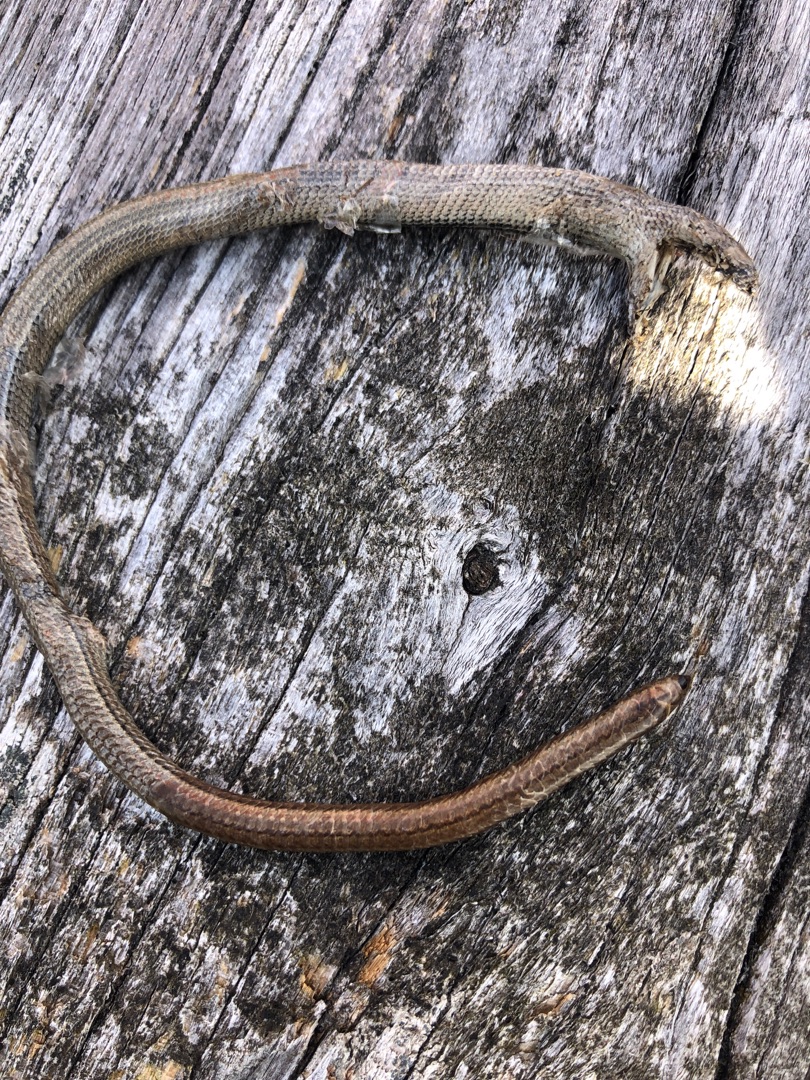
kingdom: Animalia
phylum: Chordata
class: Squamata
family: Anguidae
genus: Anguis
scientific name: Anguis fragilis
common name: Stålorm
